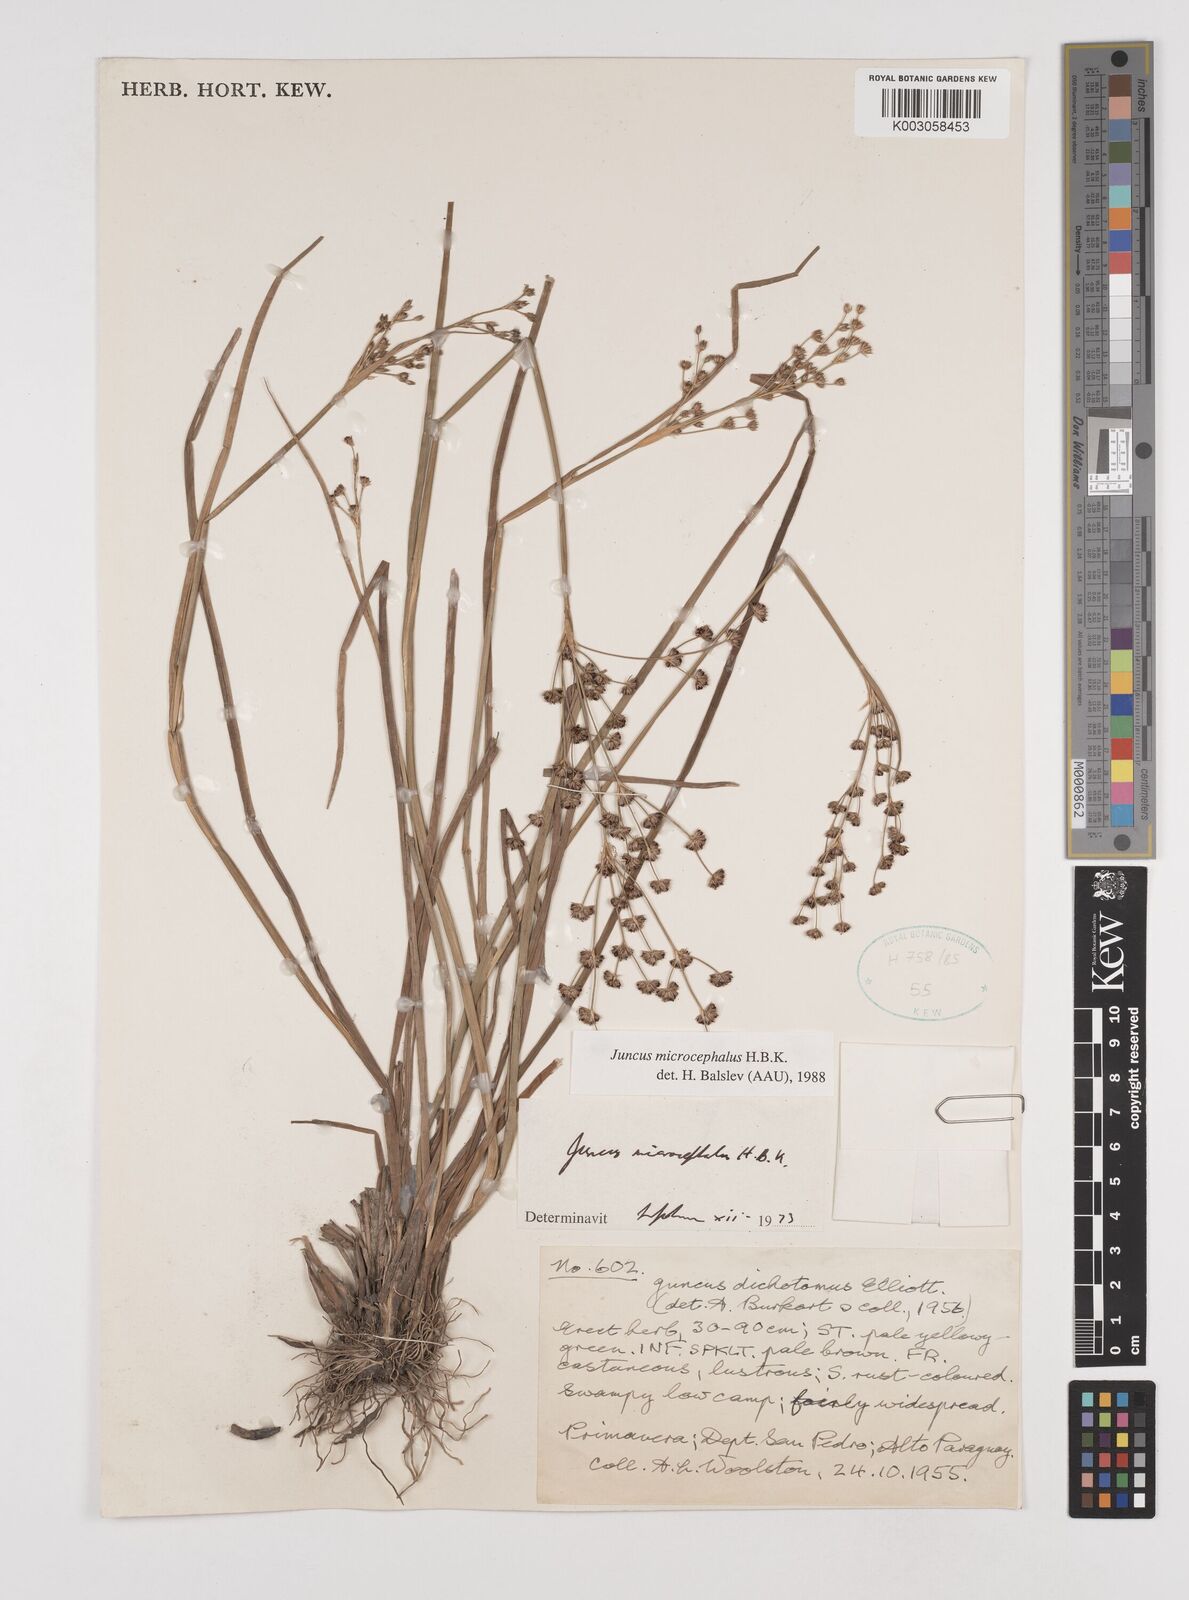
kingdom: Plantae
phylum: Tracheophyta
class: Liliopsida
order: Poales
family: Juncaceae
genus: Juncus
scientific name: Juncus microcephalus
